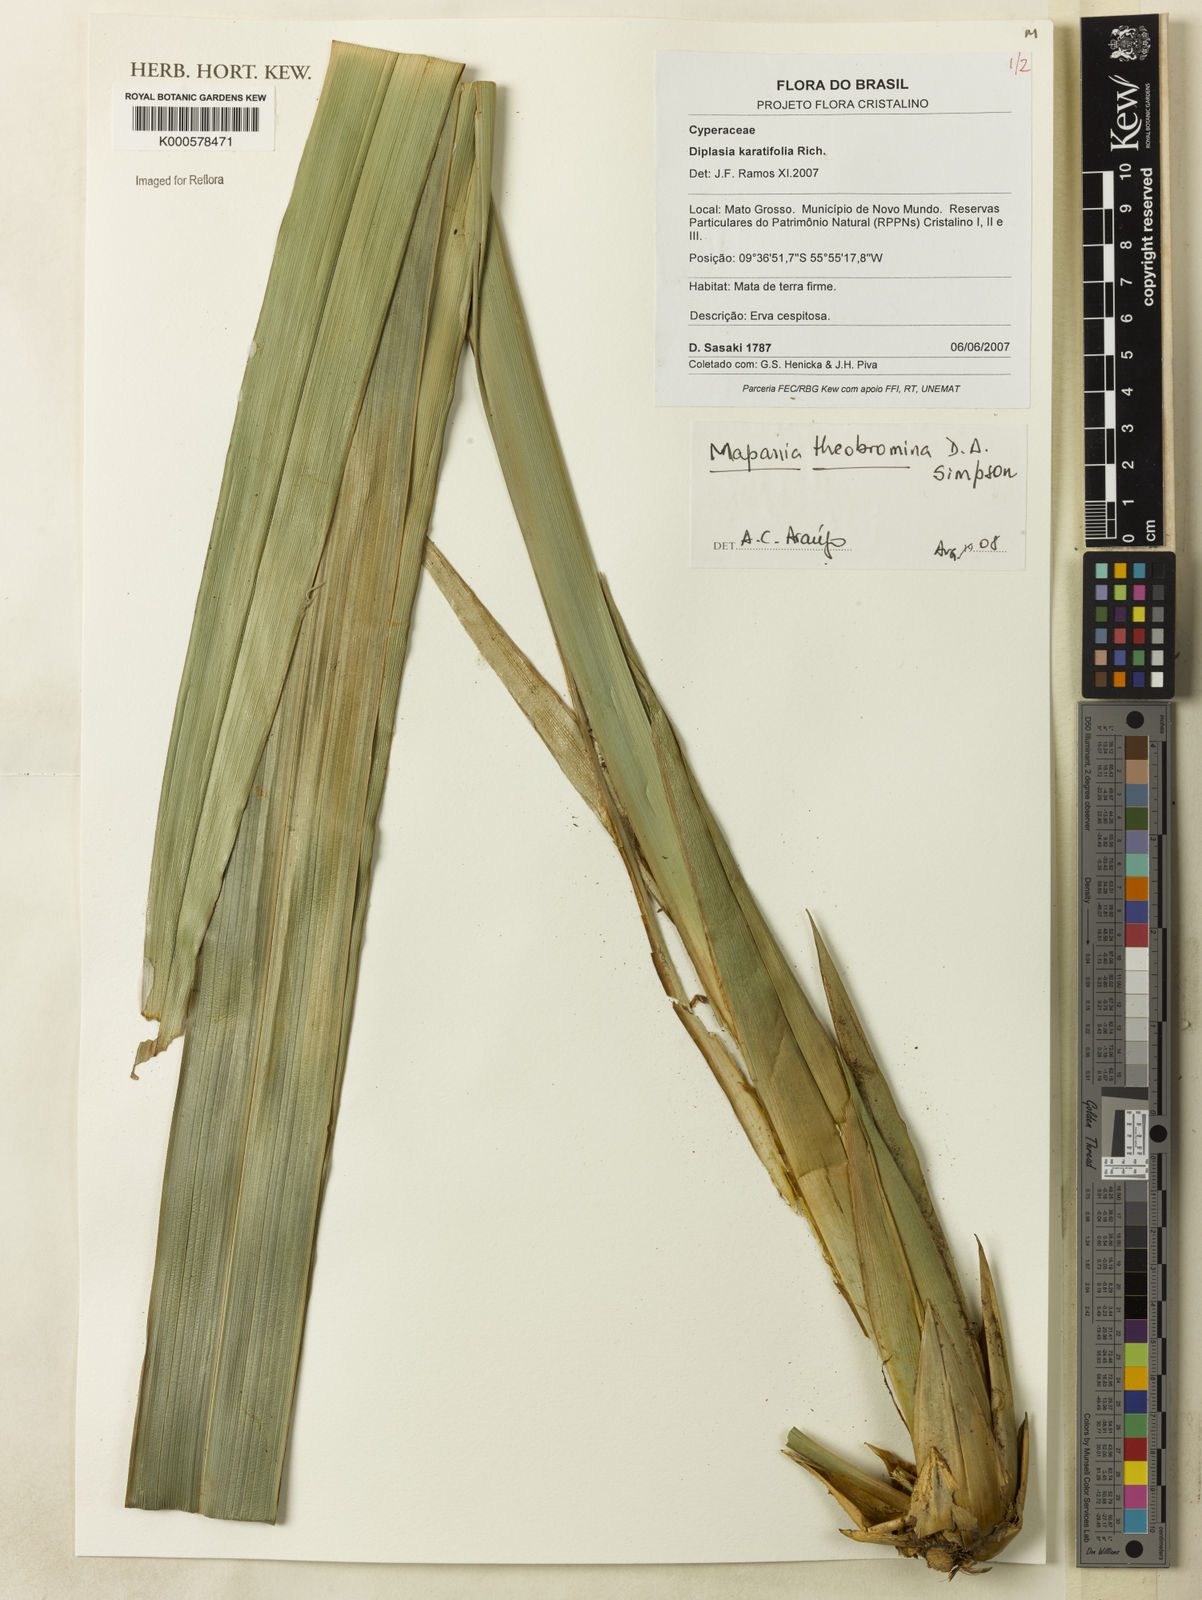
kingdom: Plantae
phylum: Tracheophyta
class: Liliopsida
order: Poales
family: Cyperaceae
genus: Mapania
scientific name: Mapania theobromina
